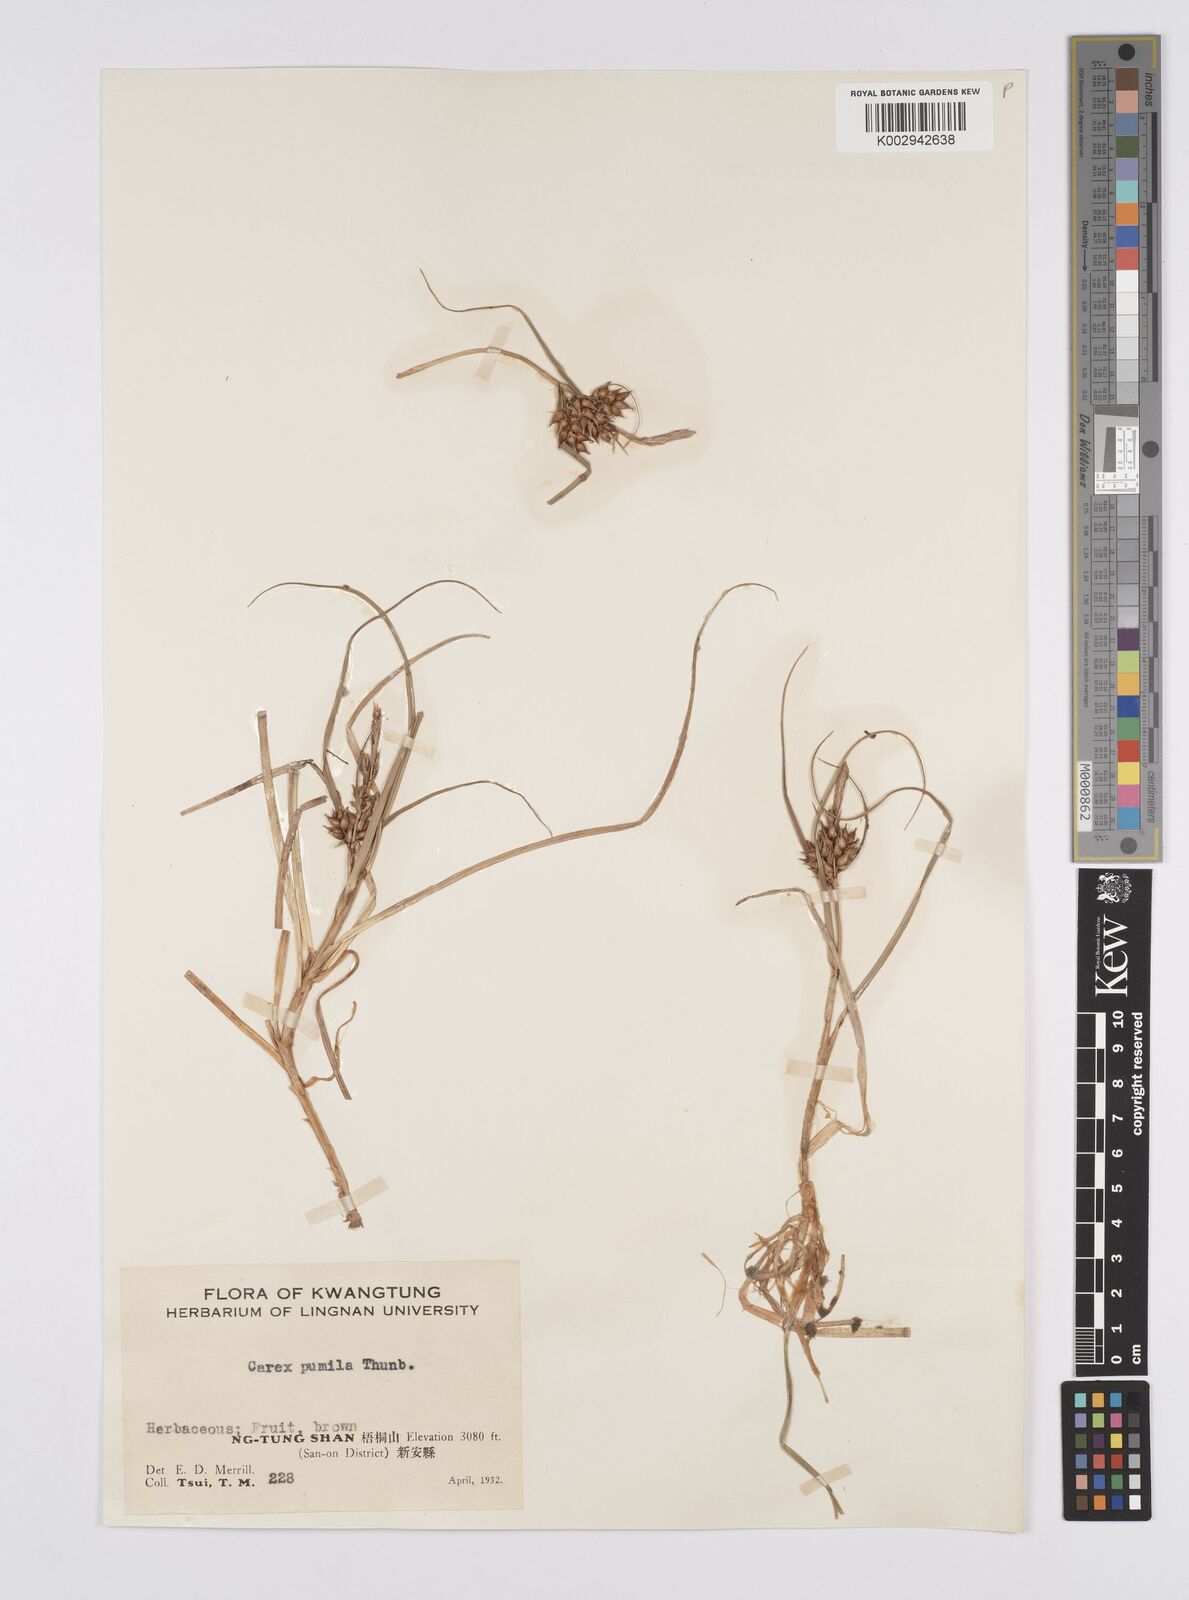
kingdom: Plantae
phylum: Tracheophyta
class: Liliopsida
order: Poales
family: Cyperaceae
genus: Carex
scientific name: Carex pumila
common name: Dwarf sedge
